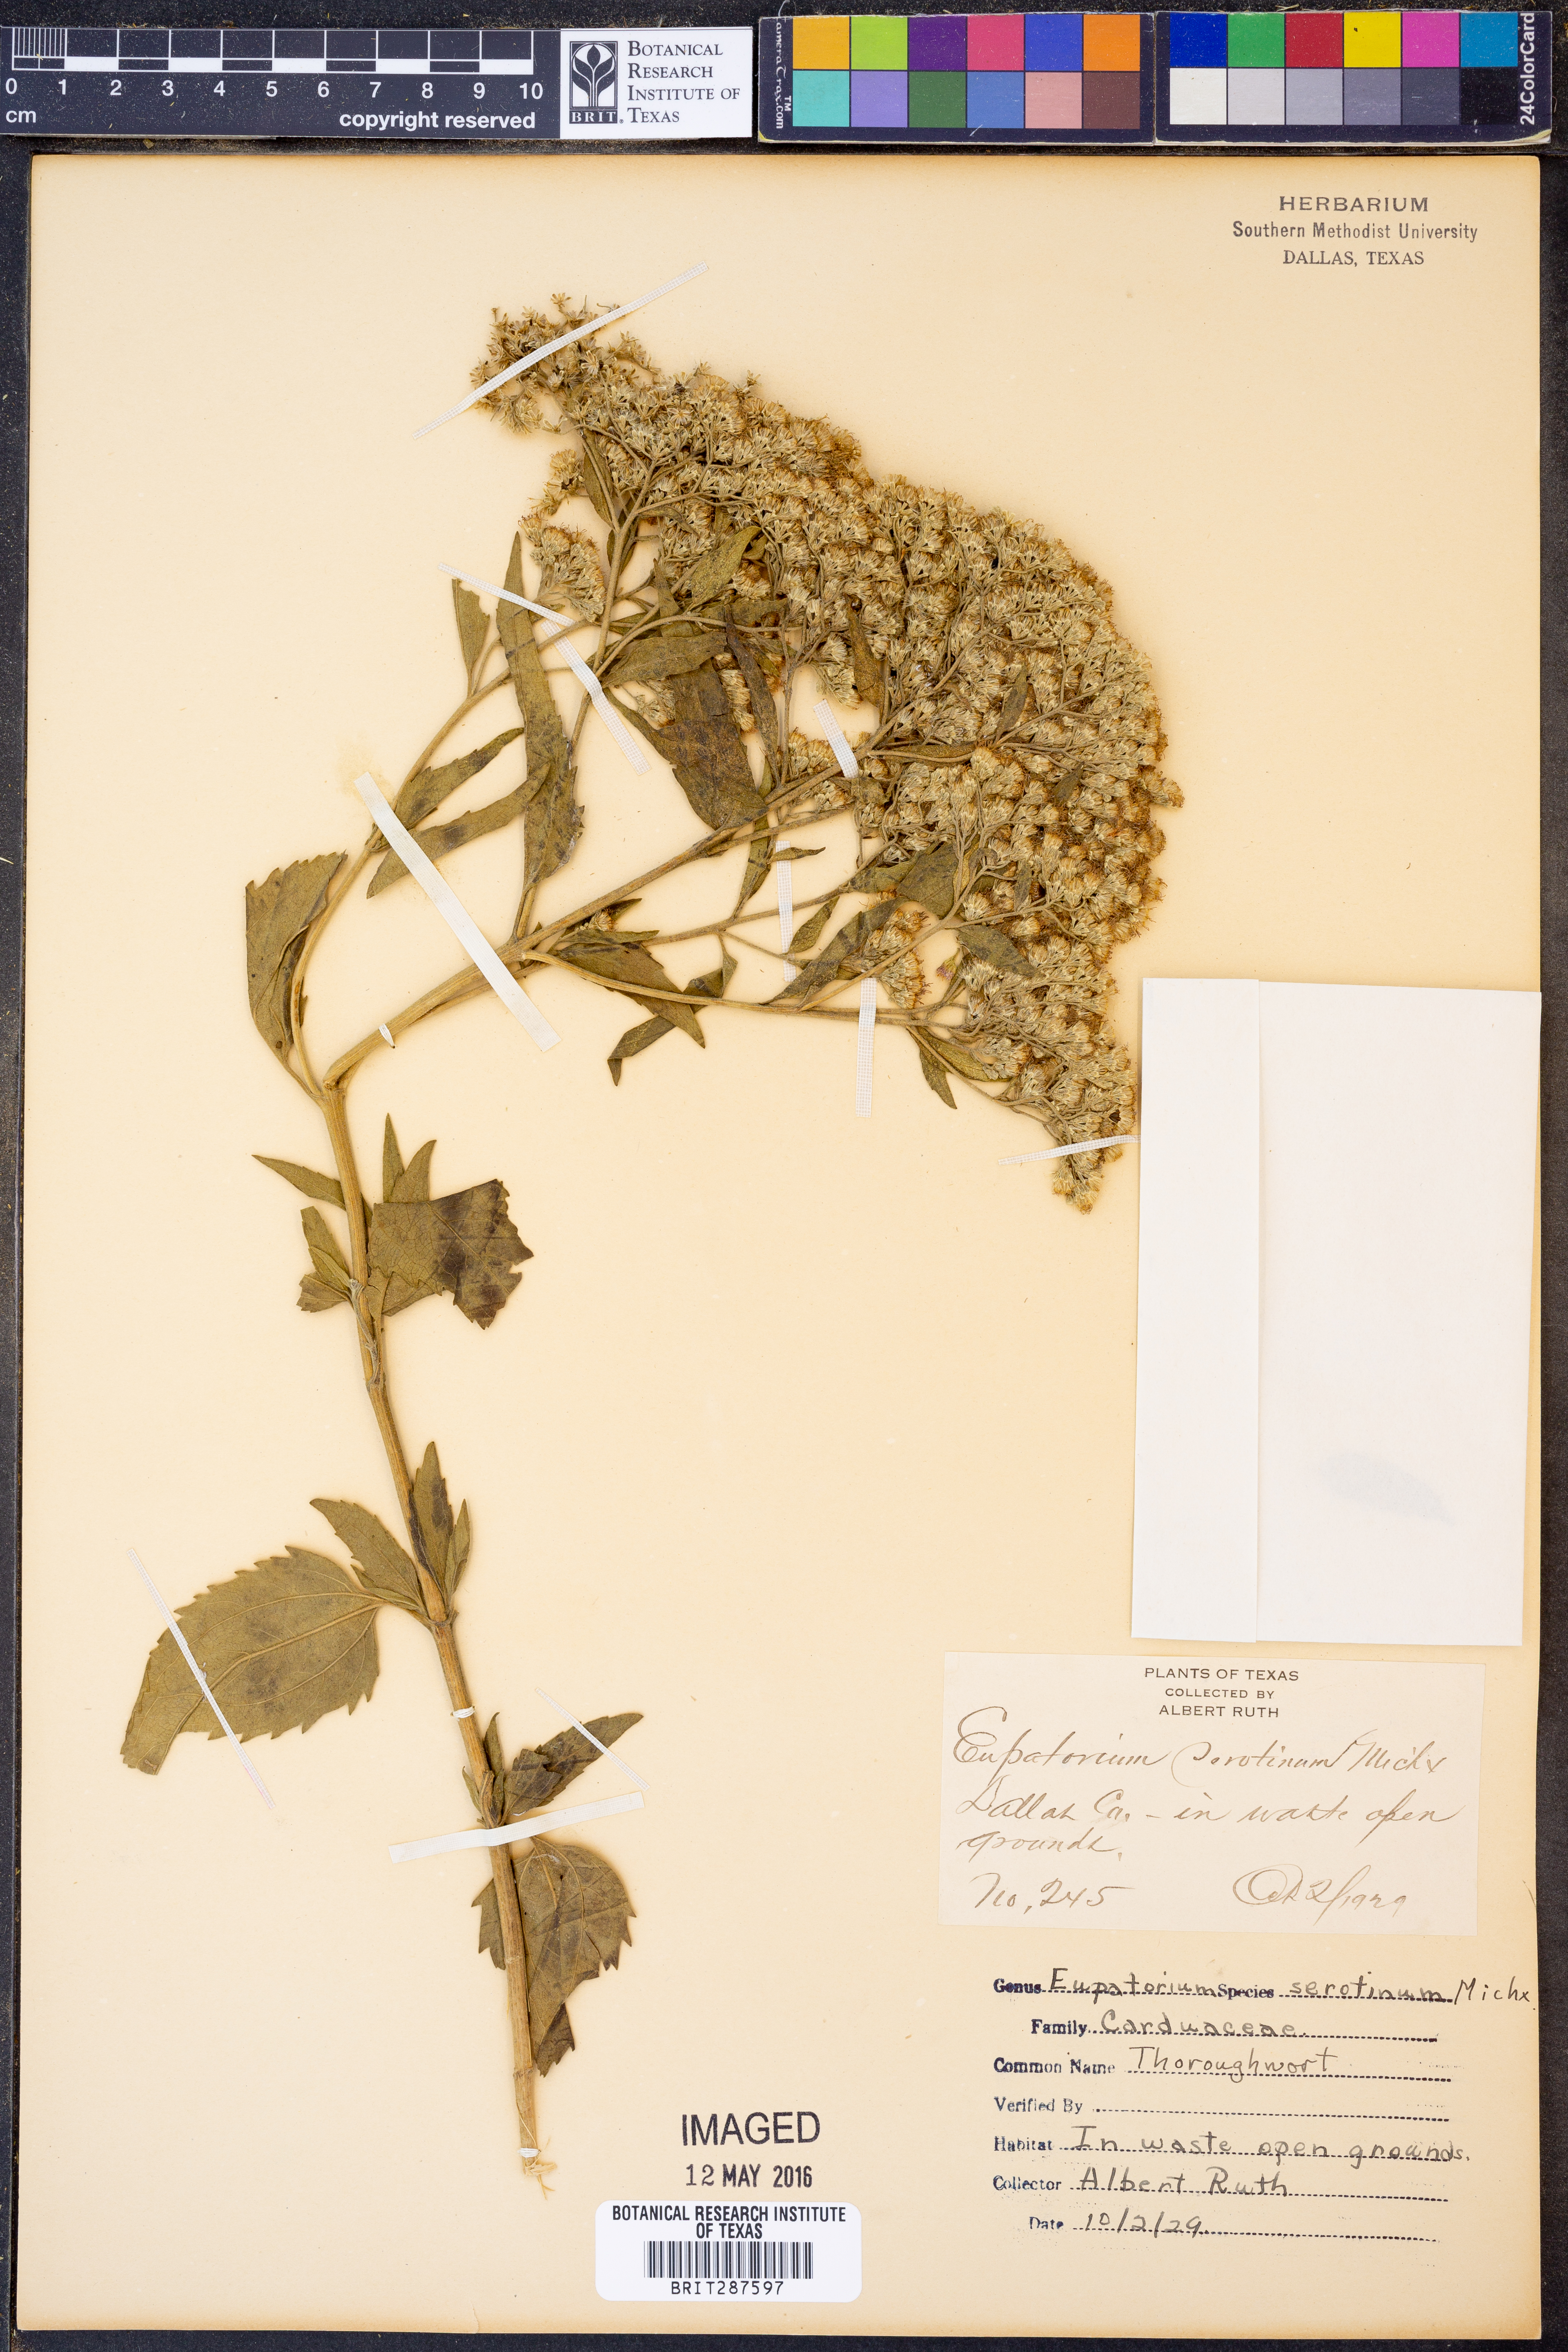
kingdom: Plantae
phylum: Tracheophyta
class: Magnoliopsida
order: Asterales
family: Asteraceae
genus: Eupatorium
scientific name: Eupatorium serotinum
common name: Late boneset
